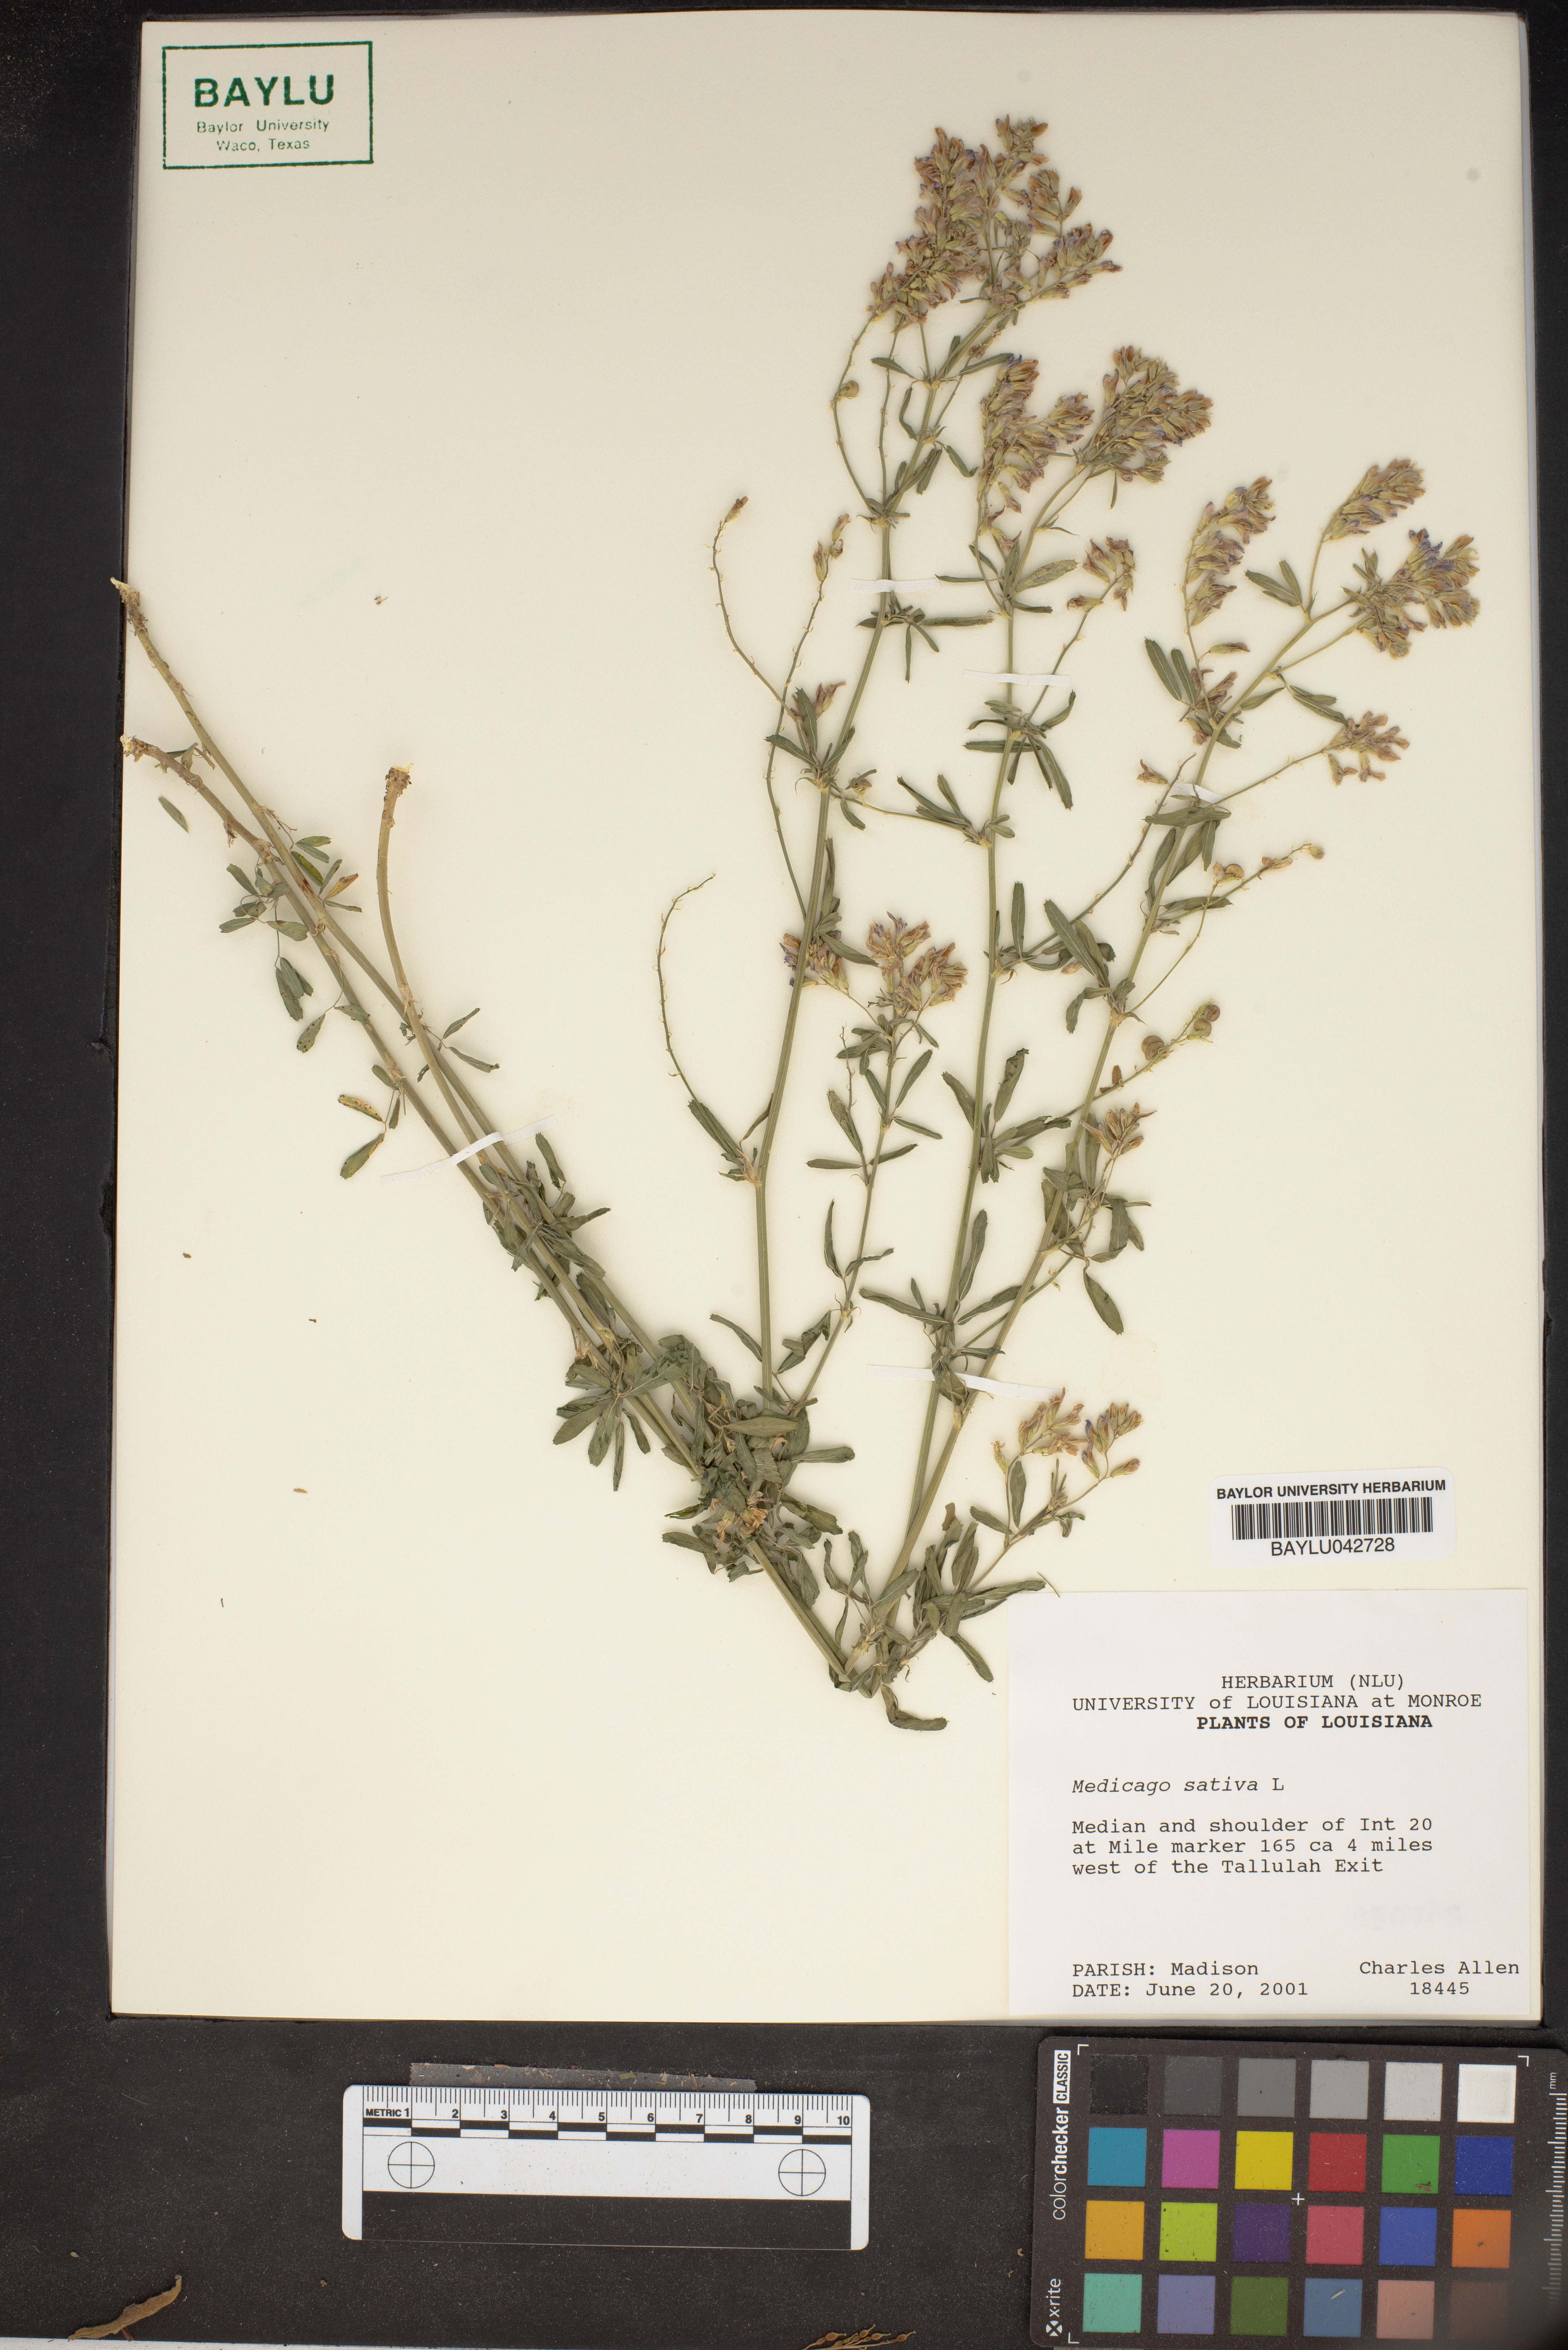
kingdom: Plantae
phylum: Tracheophyta
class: Magnoliopsida
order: Fabales
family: Fabaceae
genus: Medicago
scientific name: Medicago sativa
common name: Alfalfa
